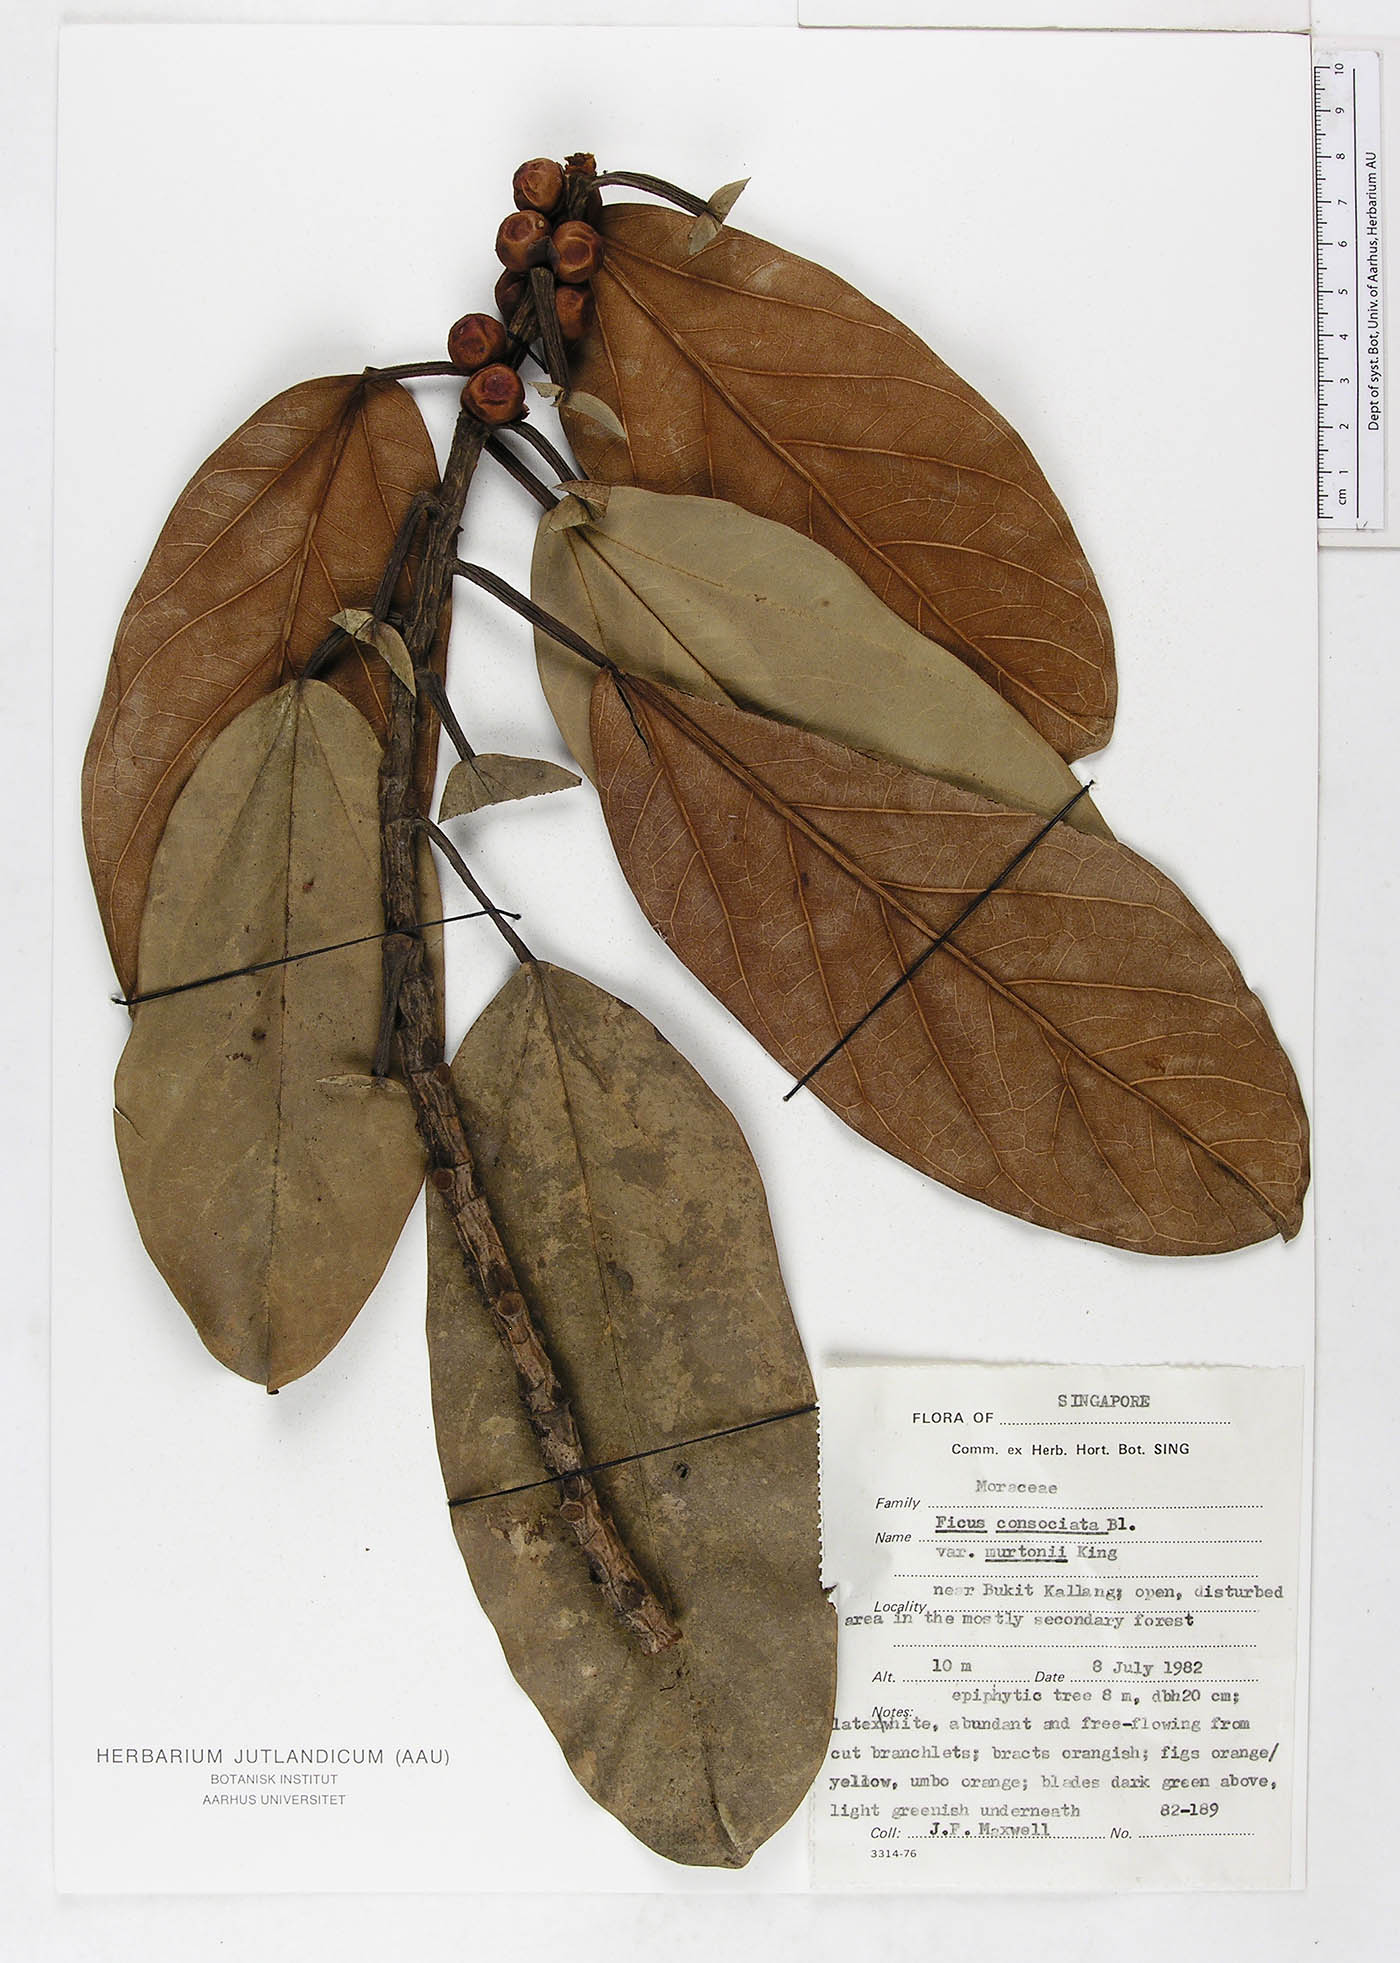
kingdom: Plantae
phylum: Tracheophyta
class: Magnoliopsida
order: Rosales
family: Moraceae
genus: Ficus
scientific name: Ficus consociata
